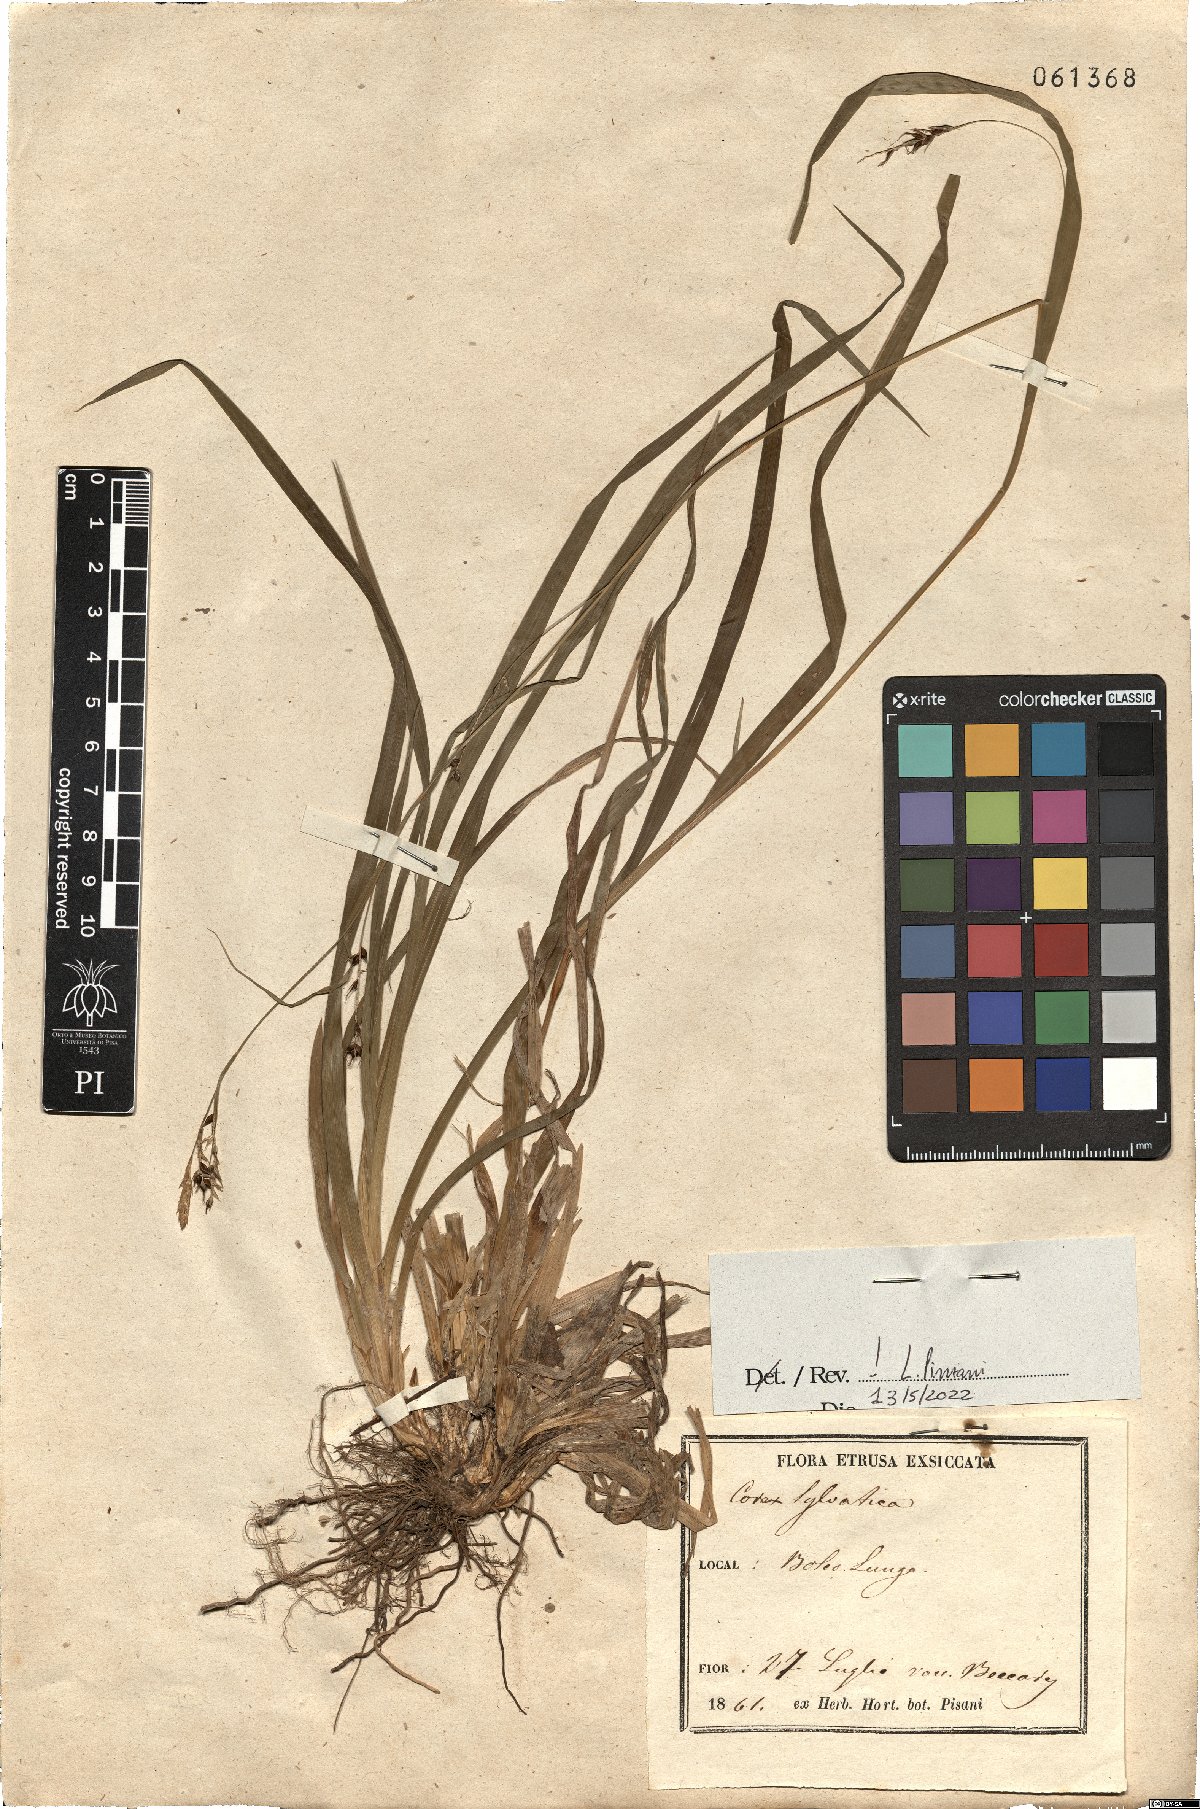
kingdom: Plantae
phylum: Tracheophyta
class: Liliopsida
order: Poales
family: Cyperaceae
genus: Carex
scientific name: Carex sylvatica
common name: Wood-sedge
